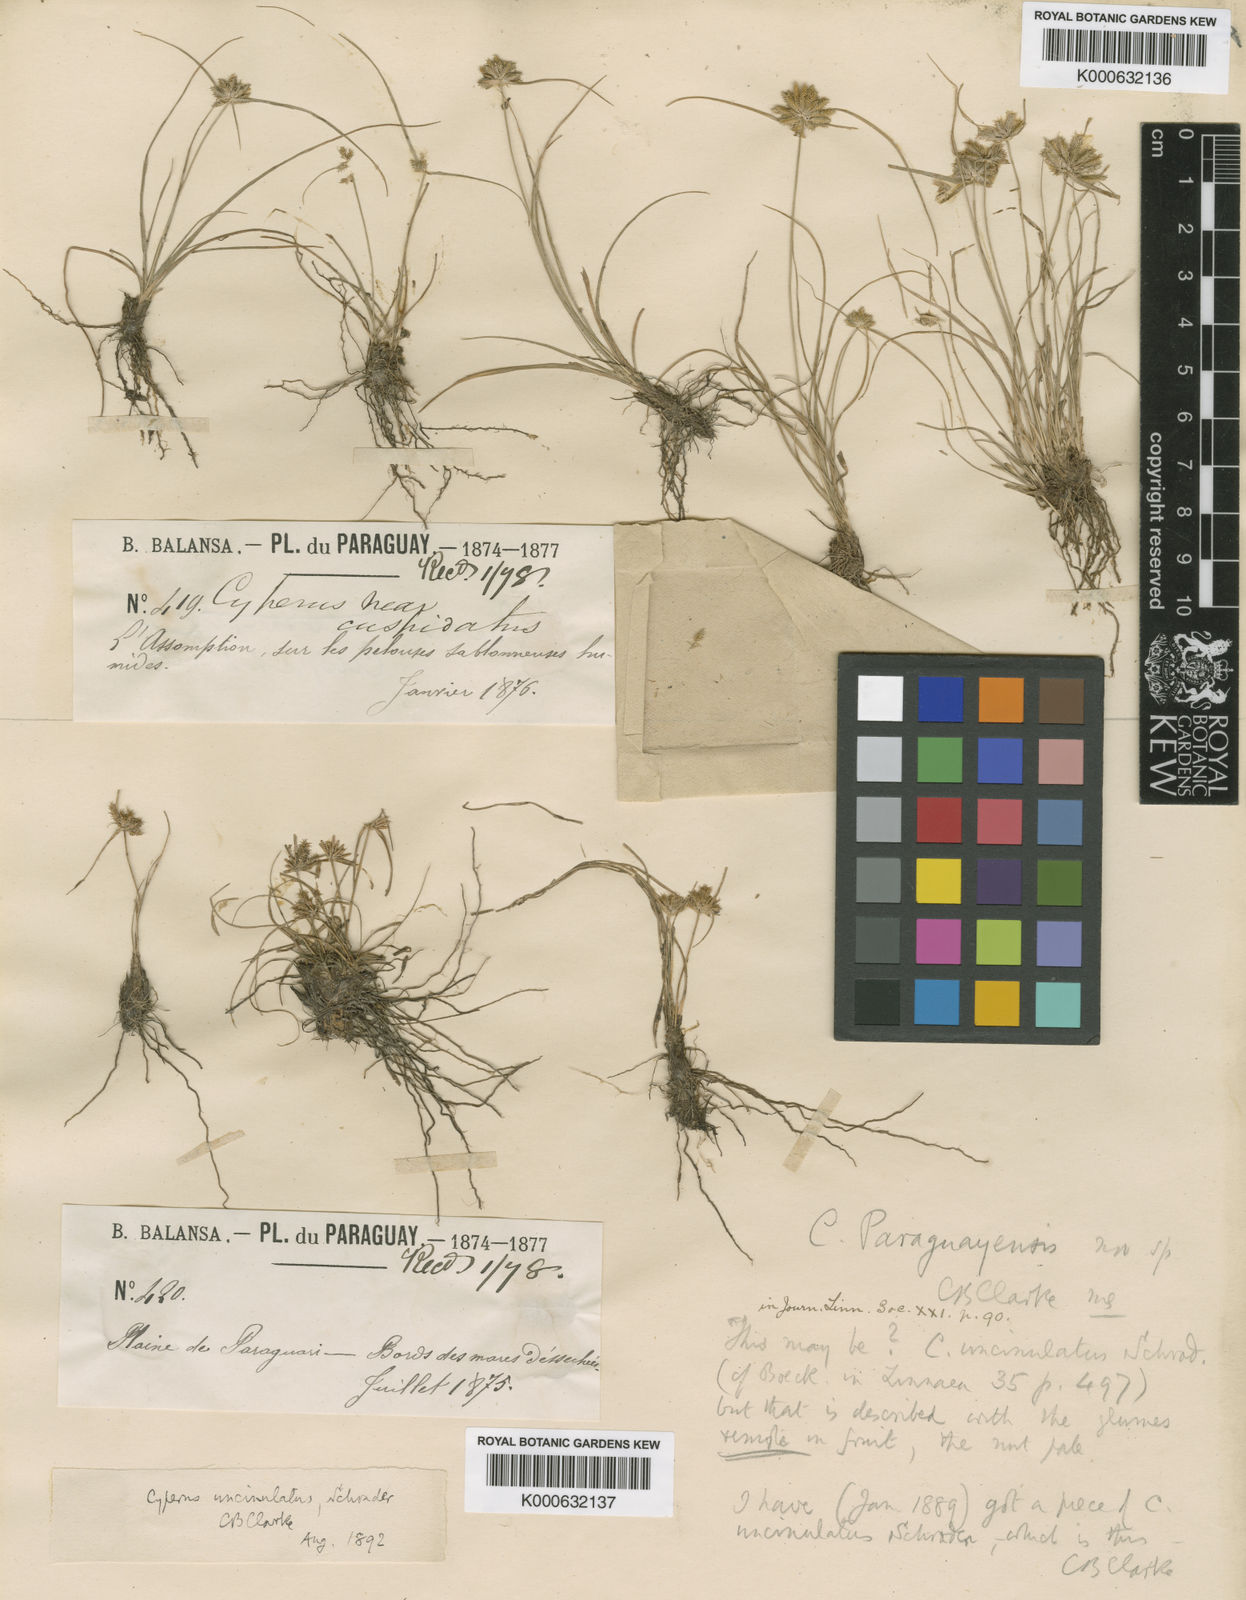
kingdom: Plantae
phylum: Tracheophyta
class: Liliopsida
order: Poales
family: Cyperaceae
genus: Cyperus
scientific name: Cyperus uncinulatus
